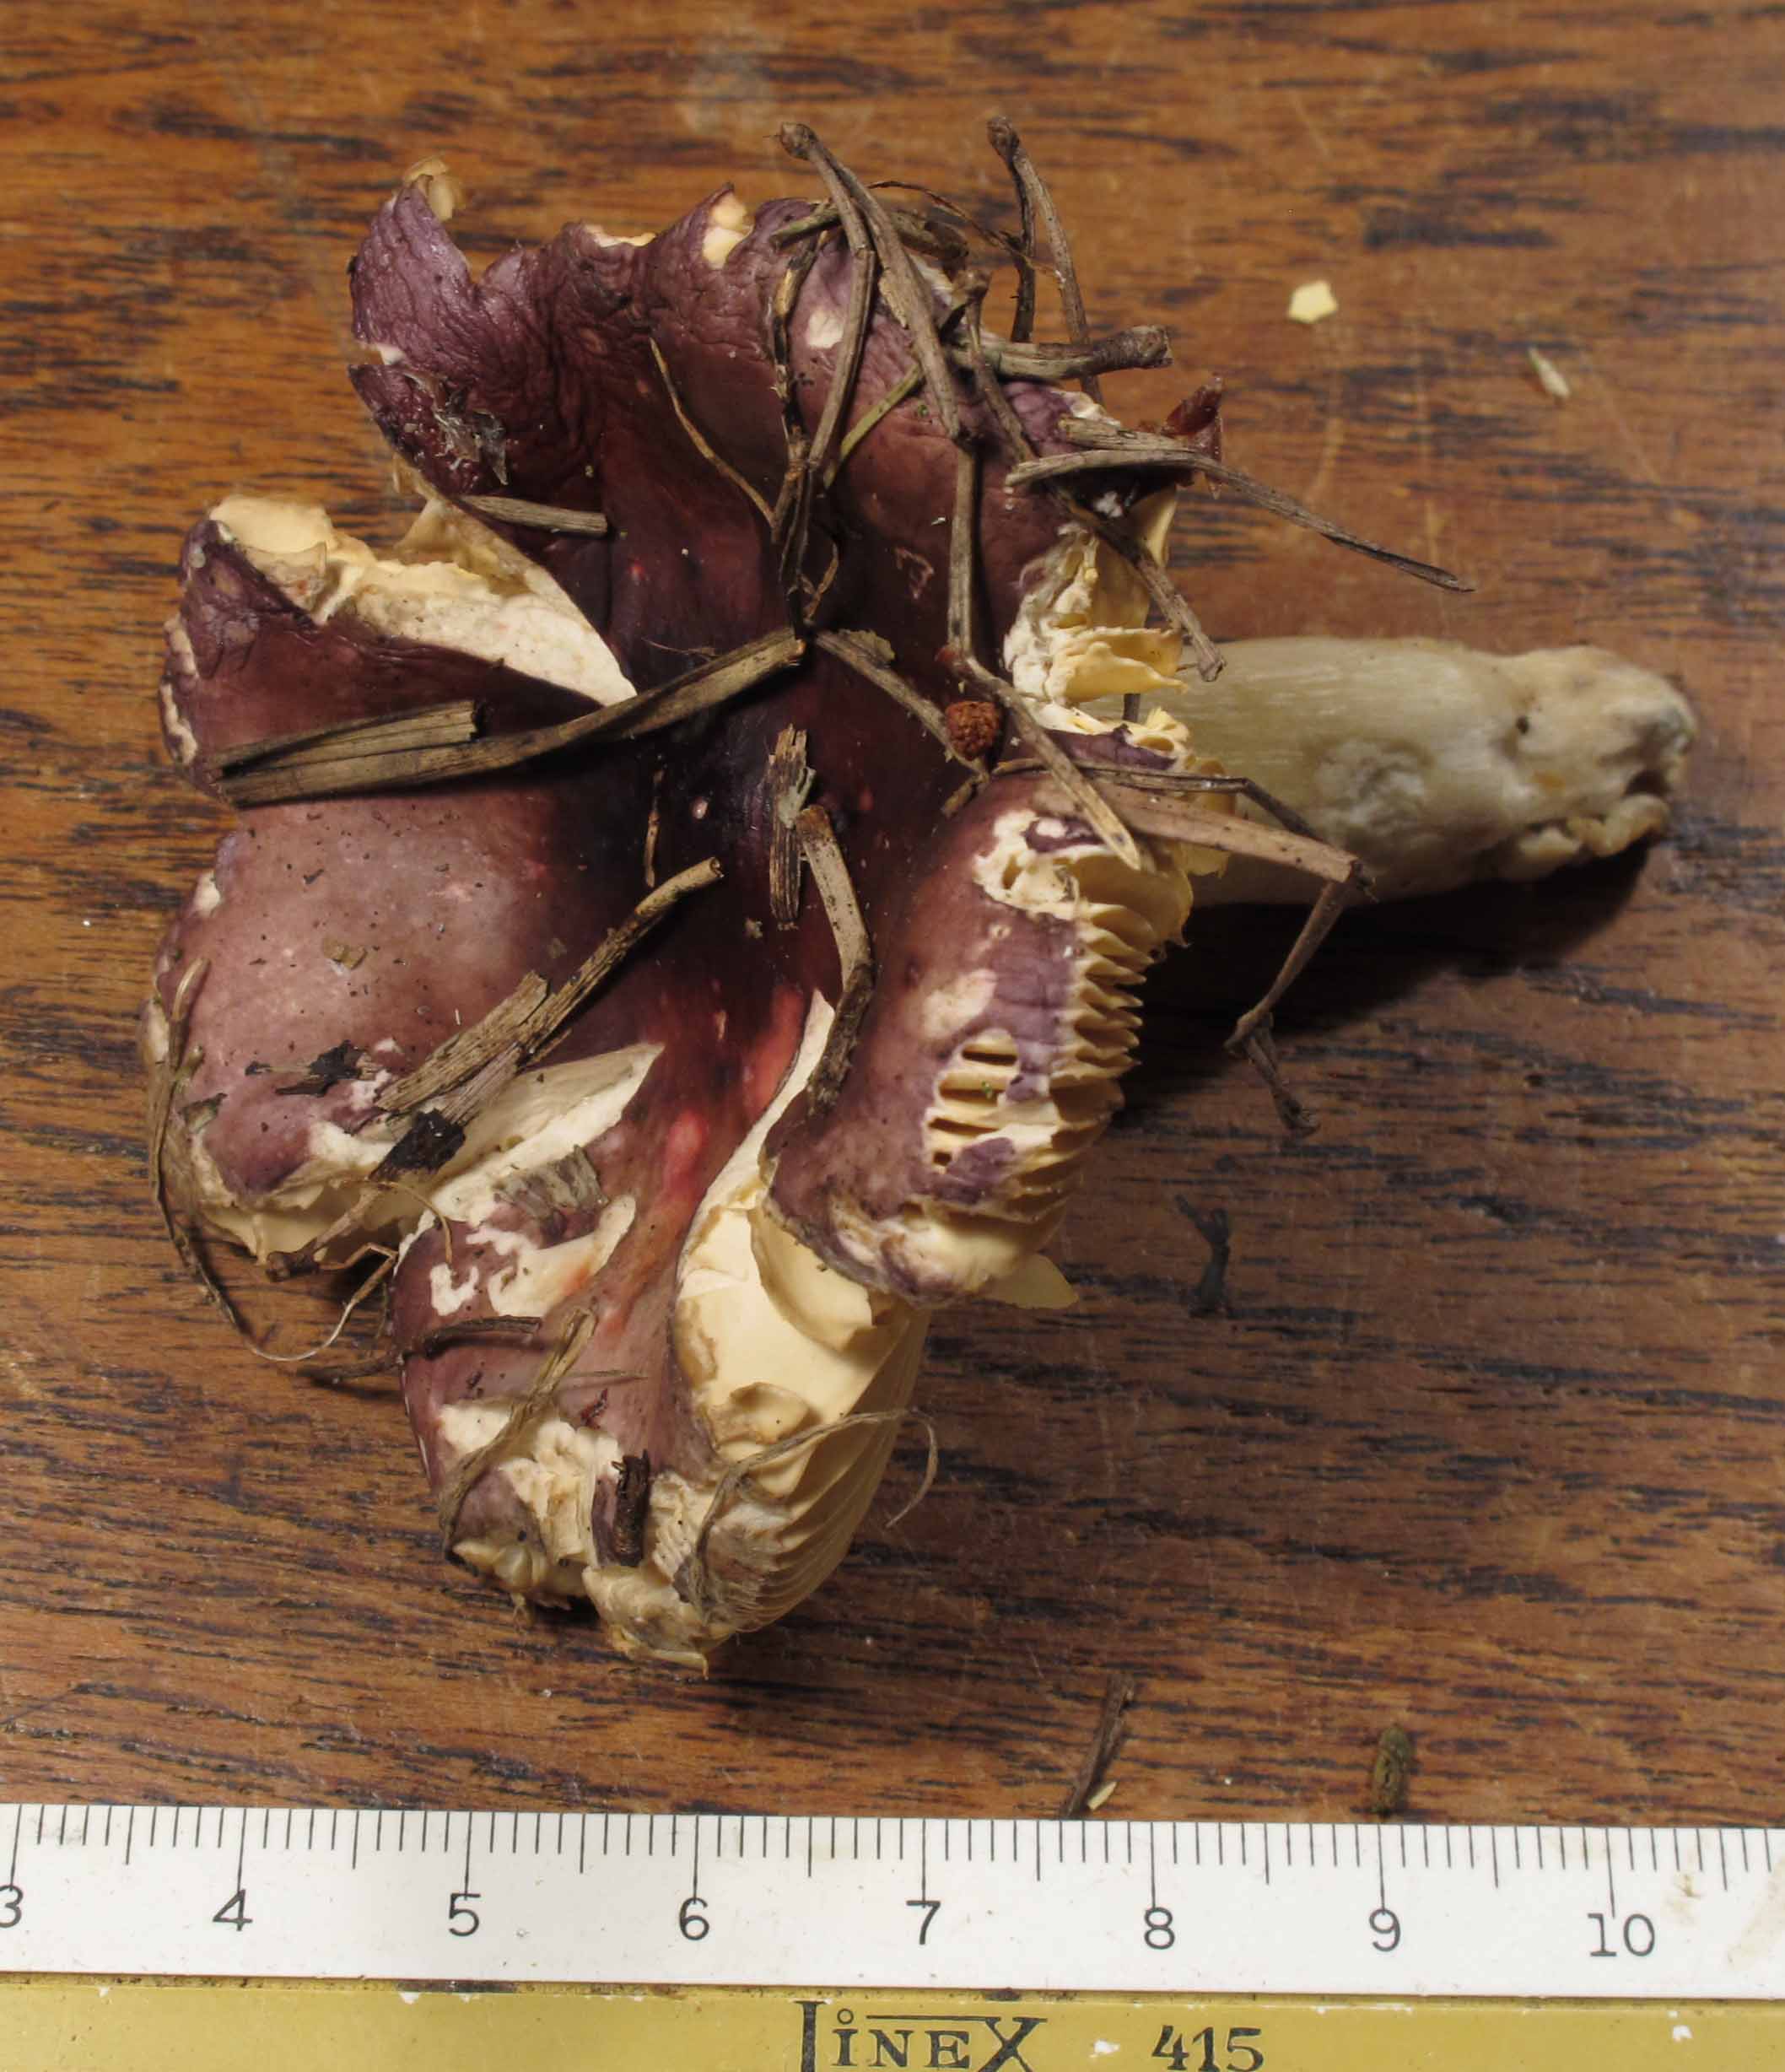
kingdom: Fungi
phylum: Basidiomycota
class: Agaricomycetes
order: Russulales
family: Russulaceae
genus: Russula
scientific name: Russula caerulea
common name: puklet skørhat
